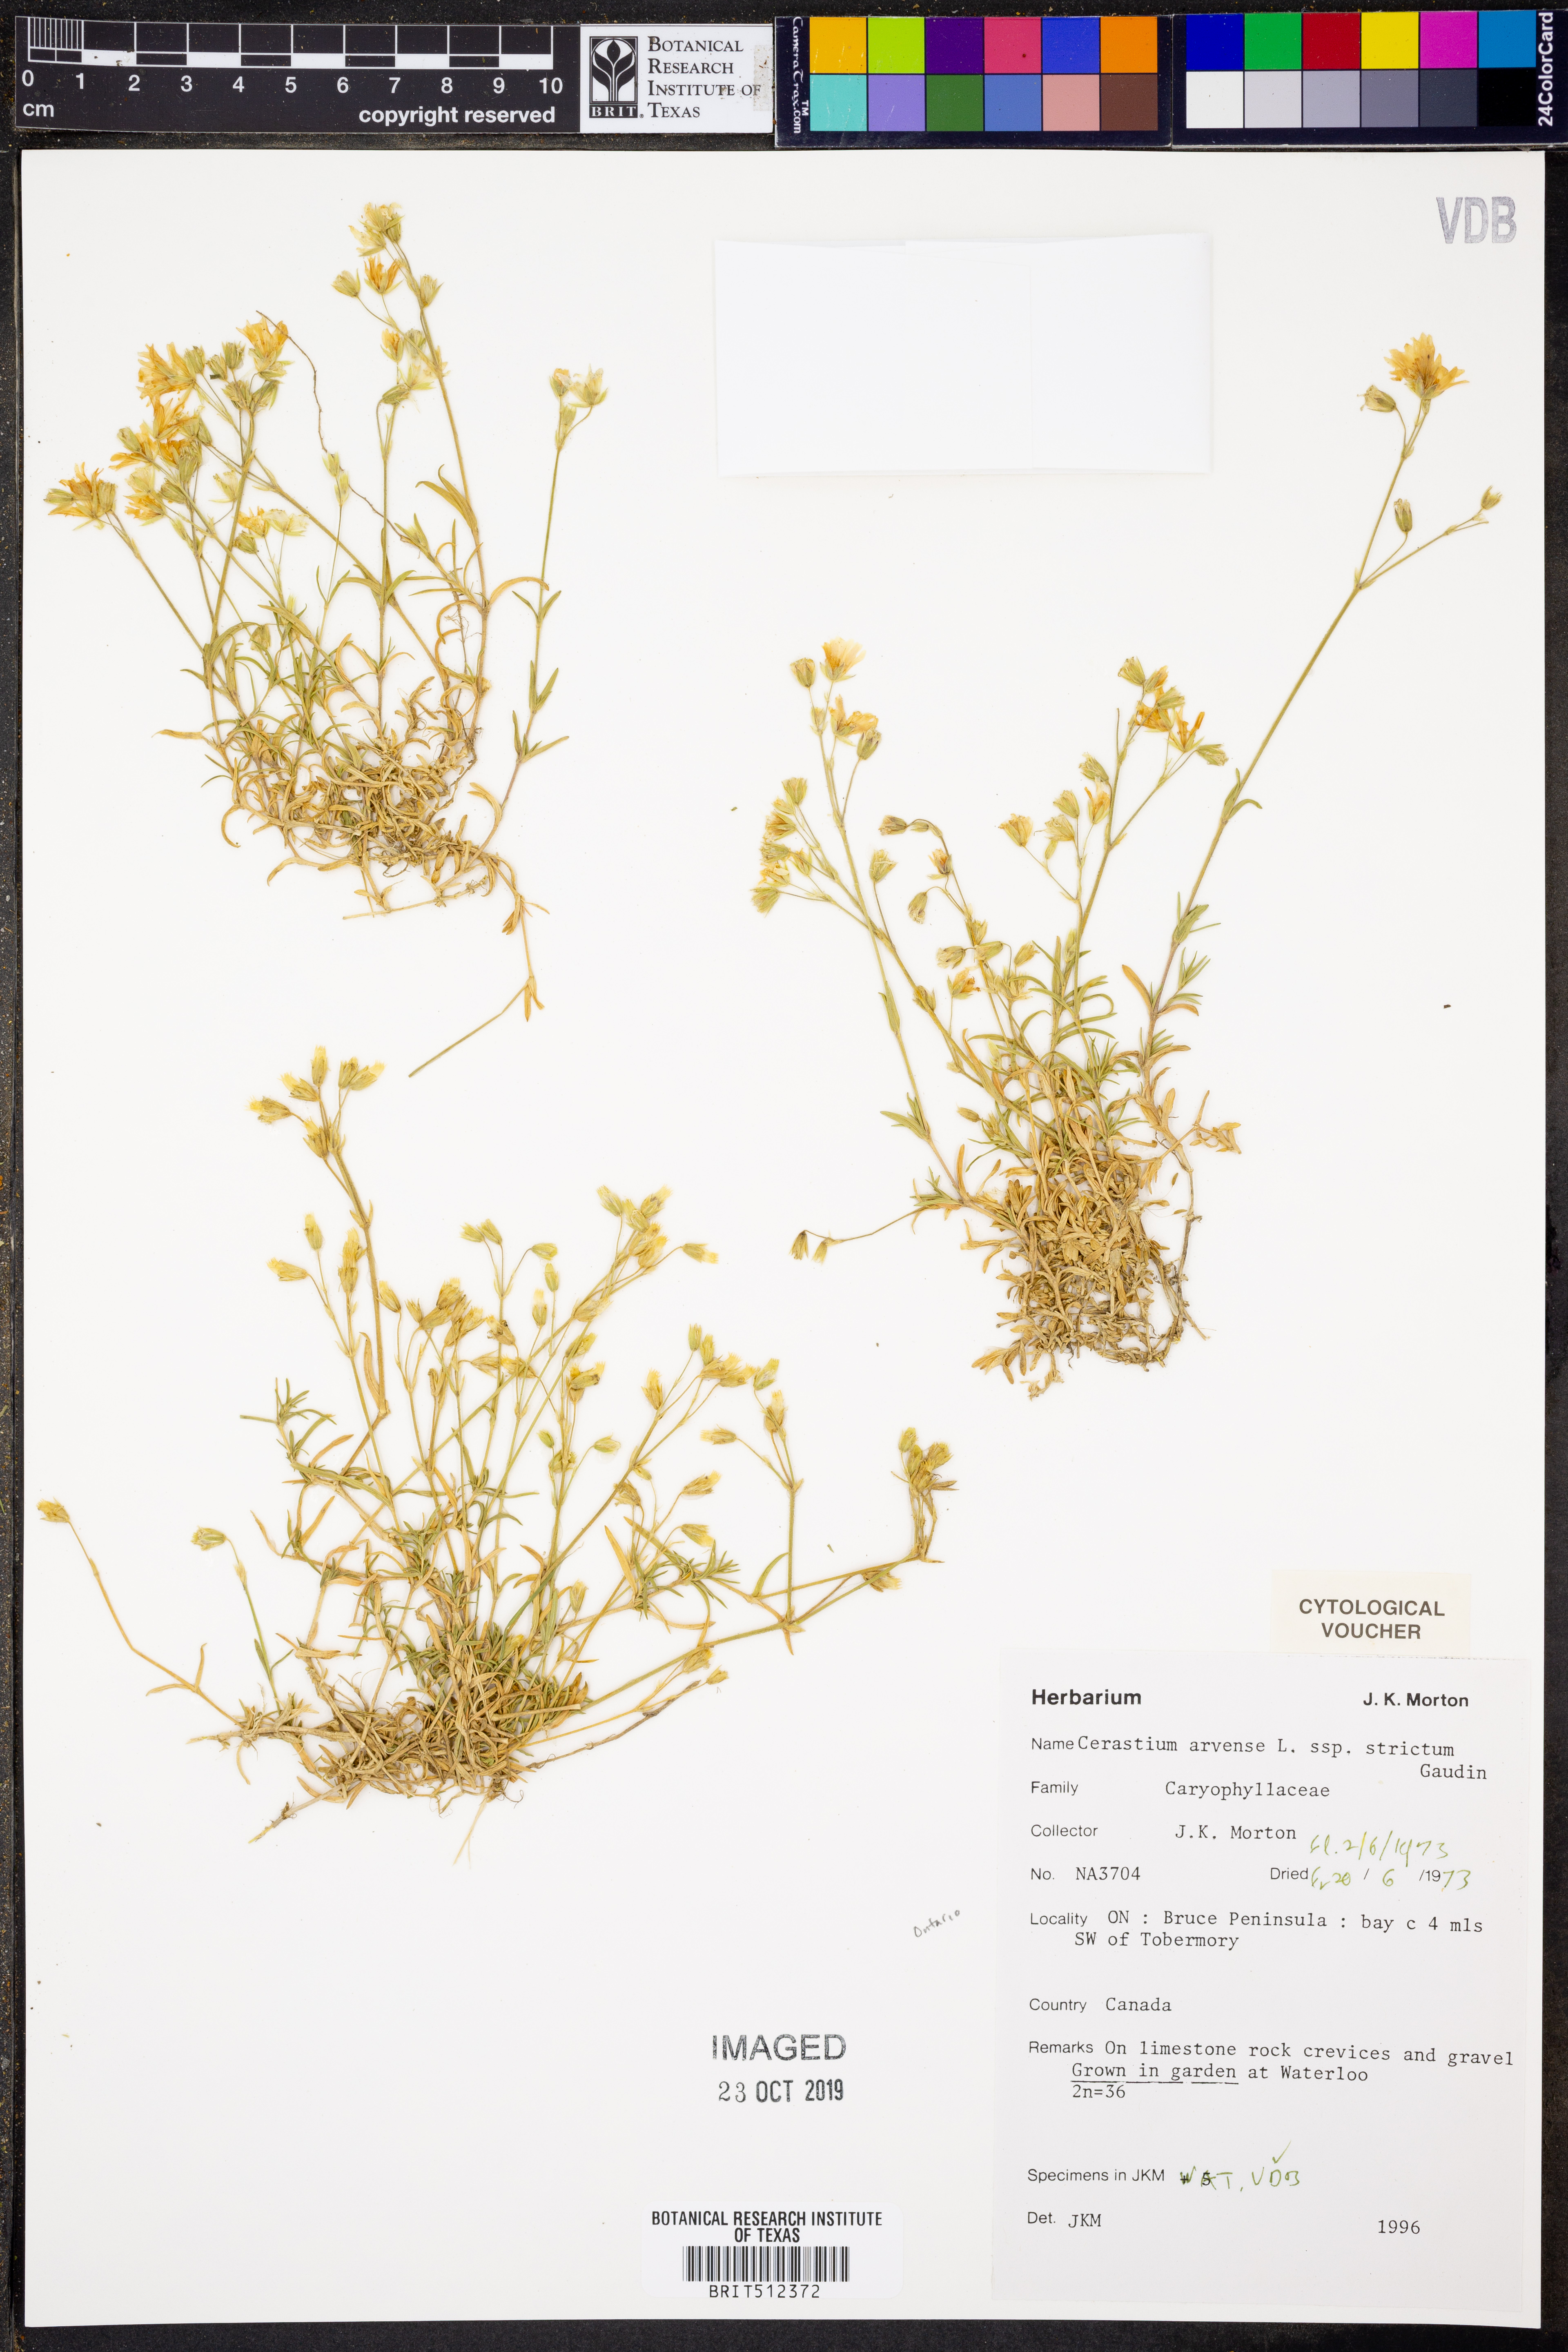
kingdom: Plantae
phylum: Tracheophyta
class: Magnoliopsida
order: Caryophyllales
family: Caryophyllaceae
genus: Cerastium
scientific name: Cerastium elongatum
